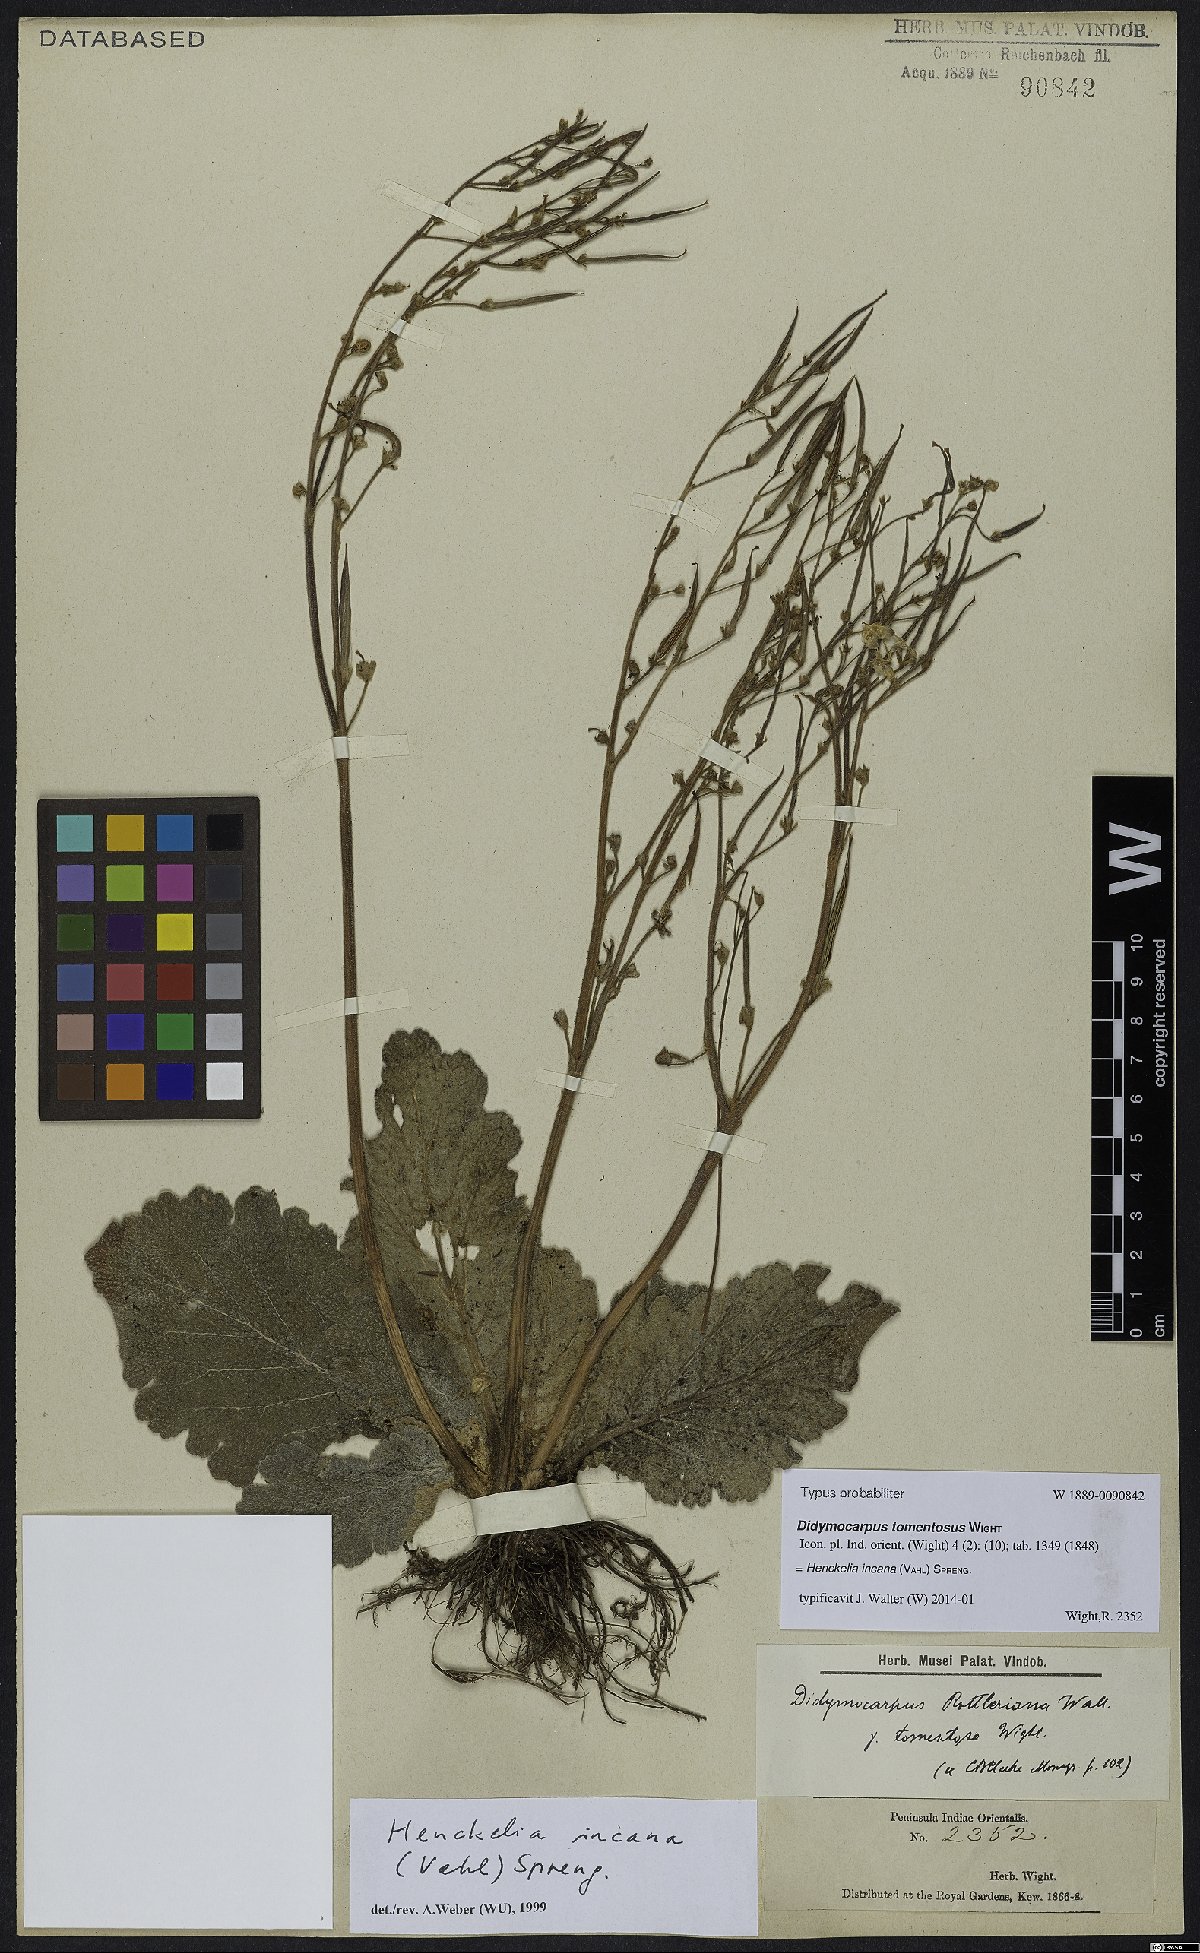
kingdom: Plantae
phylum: Tracheophyta
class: Magnoliopsida
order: Lamiales
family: Gesneriaceae
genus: Henckelia
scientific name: Henckelia incana
